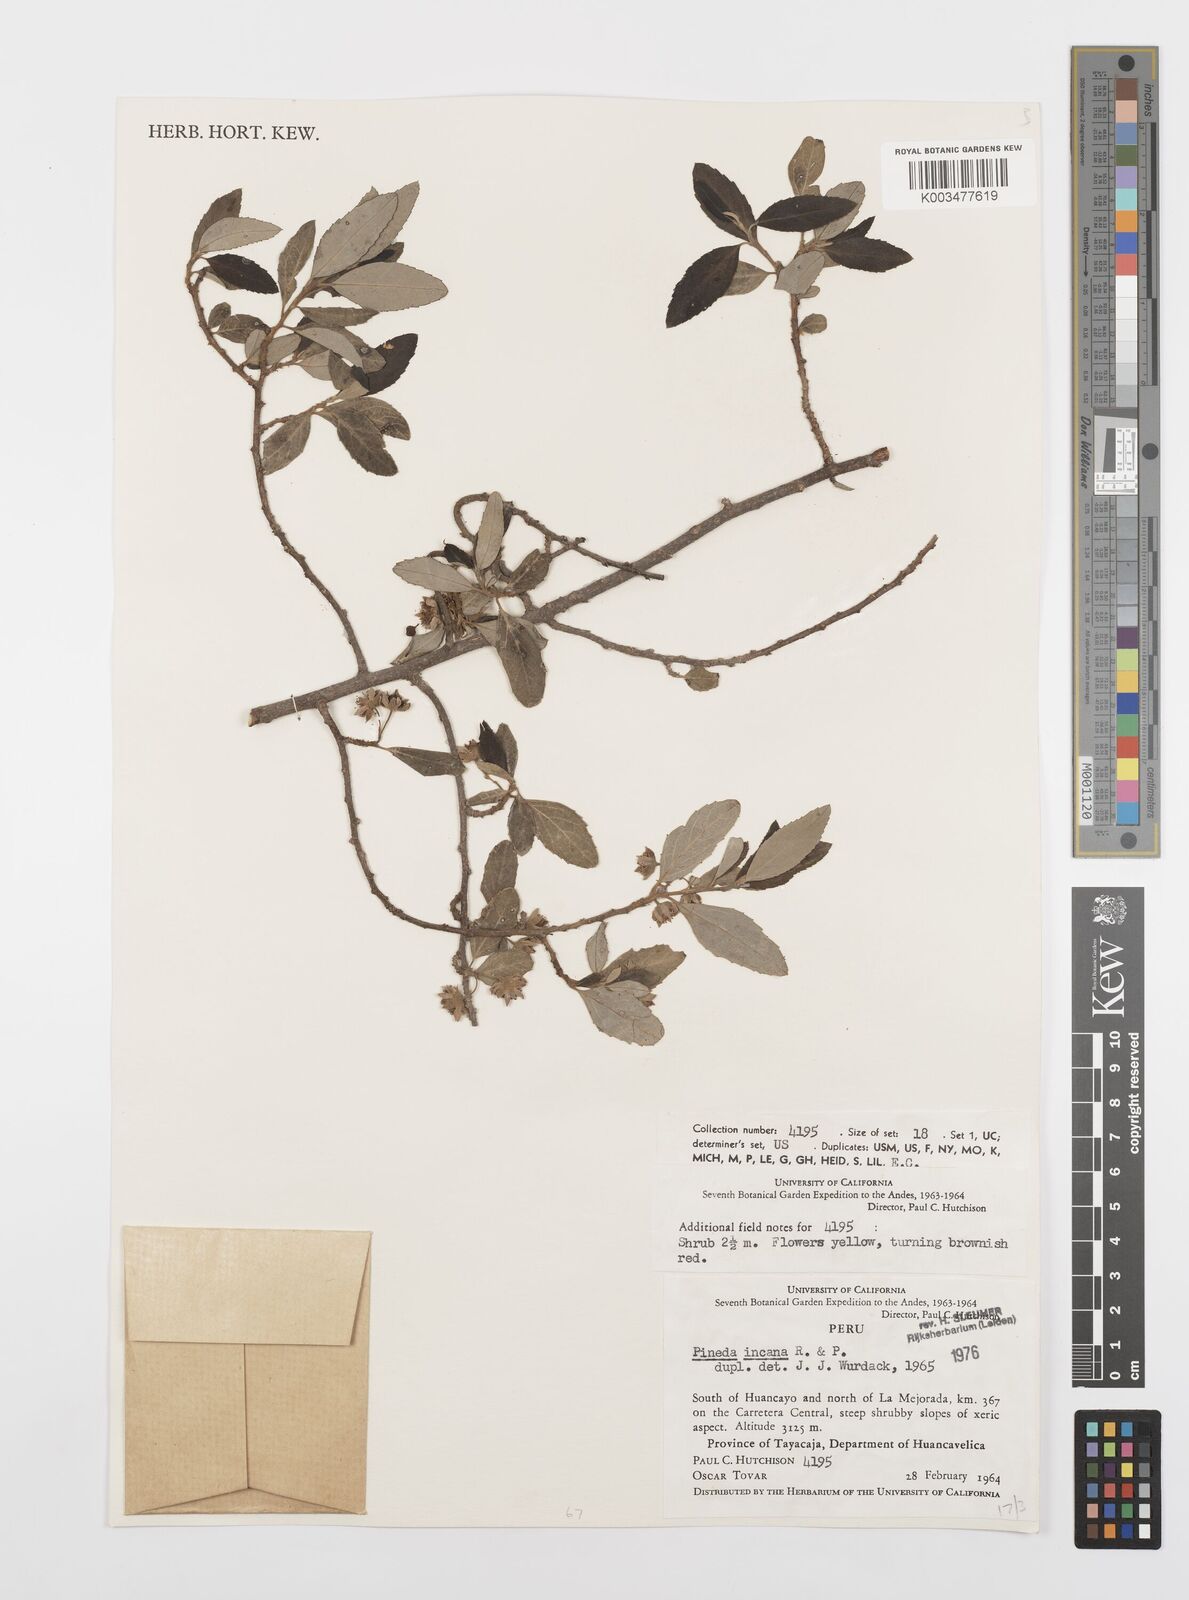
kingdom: Plantae
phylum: Tracheophyta
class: Magnoliopsida
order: Malpighiales
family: Salicaceae
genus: Pineda
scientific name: Pineda incana
